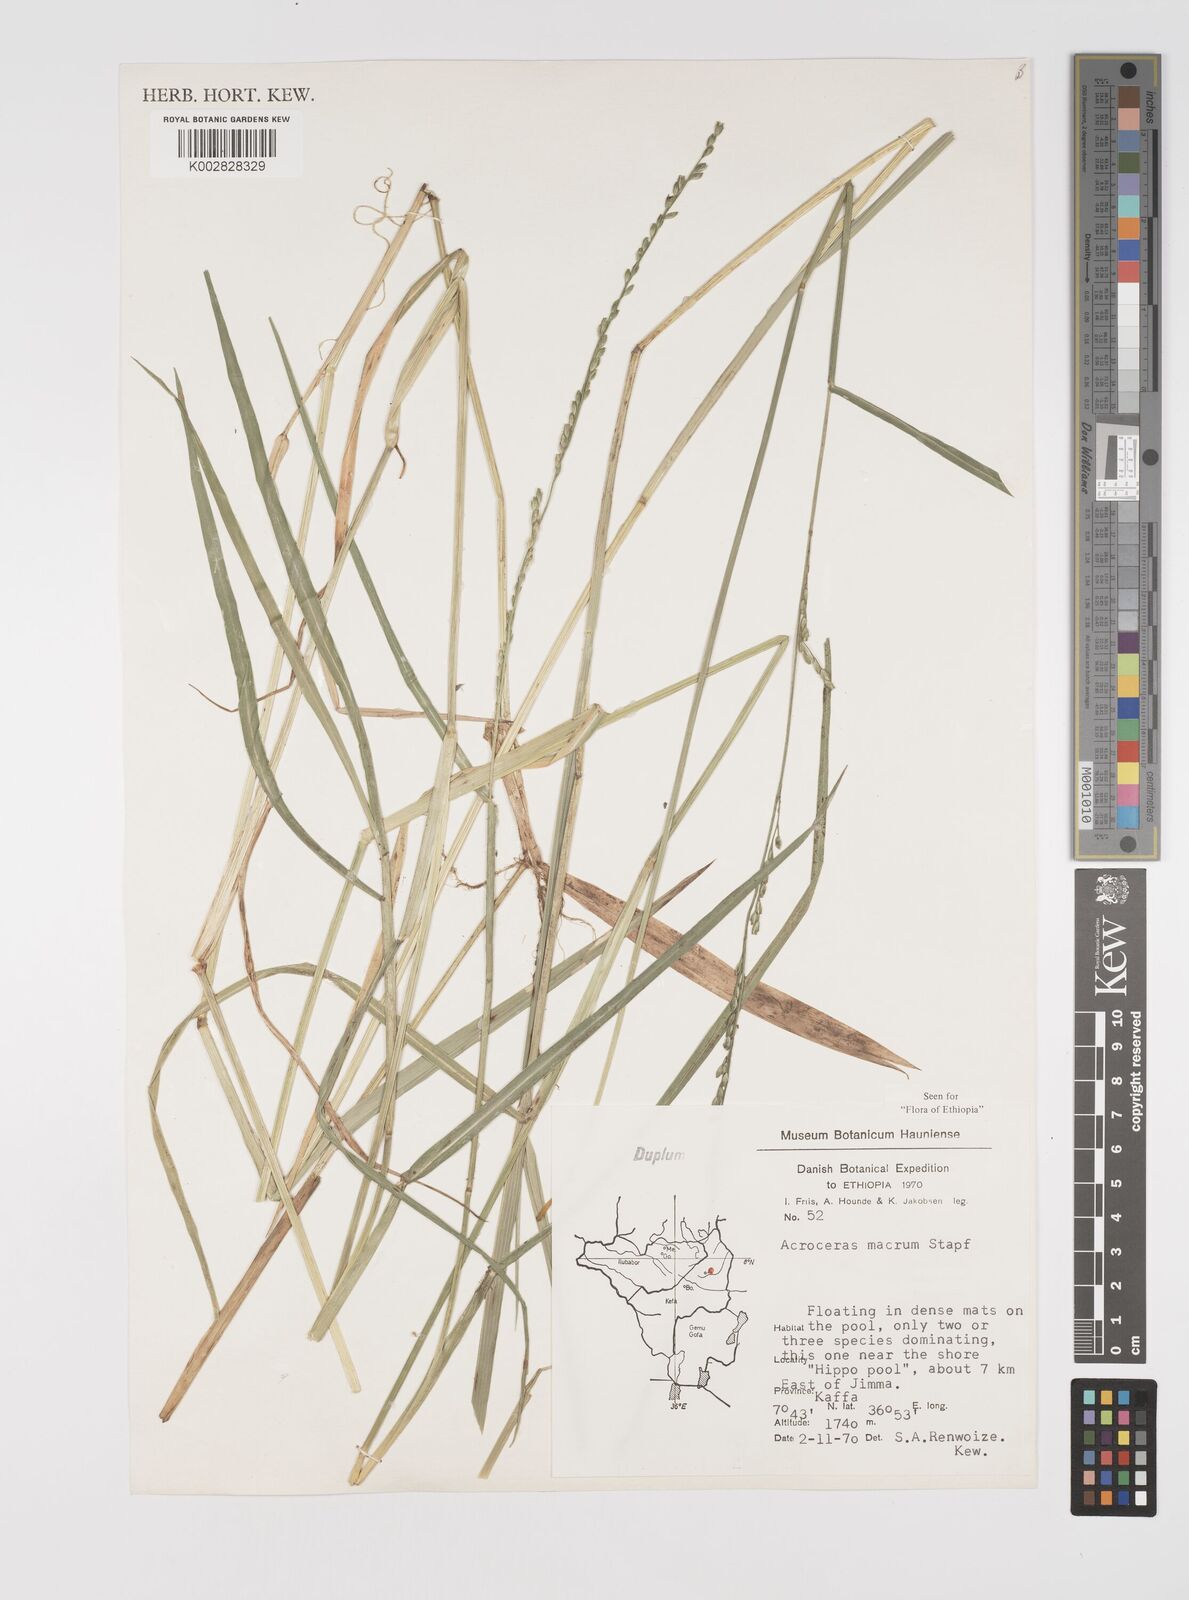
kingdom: Plantae
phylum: Tracheophyta
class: Liliopsida
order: Poales
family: Poaceae
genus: Acroceras
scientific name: Acroceras macrum
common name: Nyl grass
